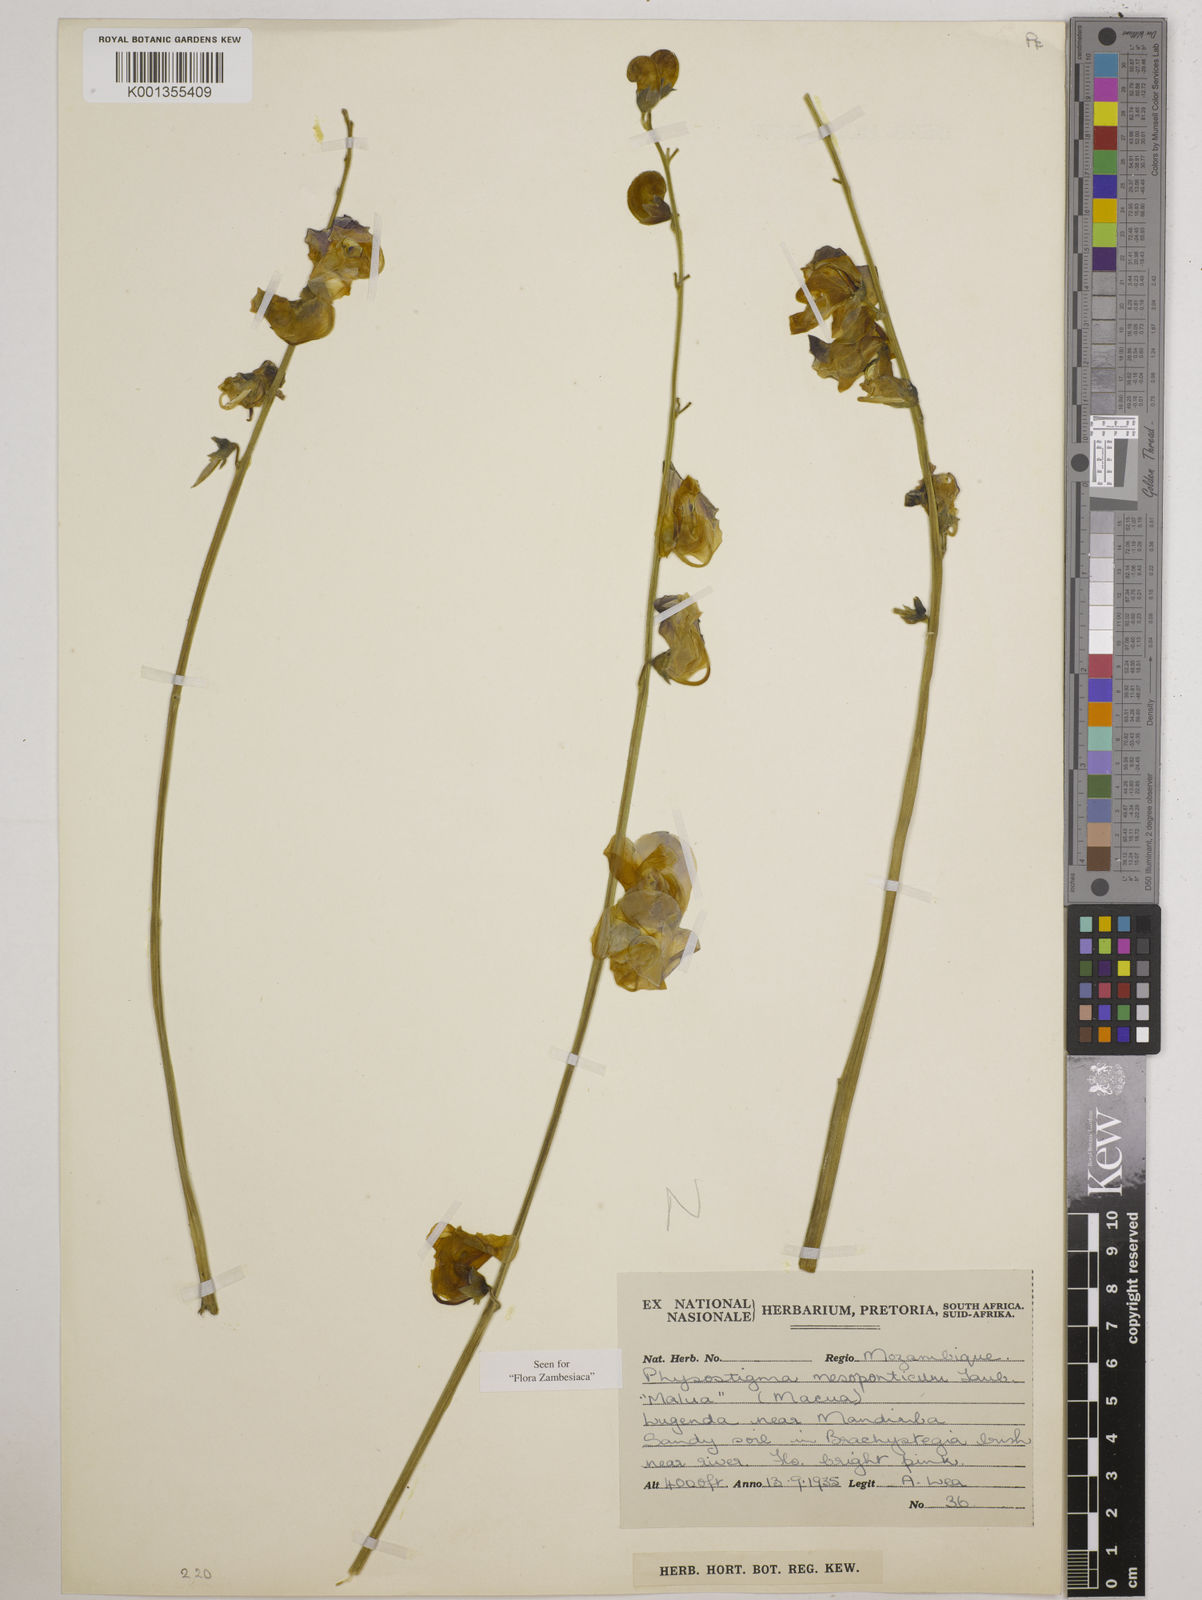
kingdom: Plantae
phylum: Tracheophyta
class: Magnoliopsida
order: Fabales
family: Fabaceae
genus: Physostigma
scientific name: Physostigma mesoponticum
